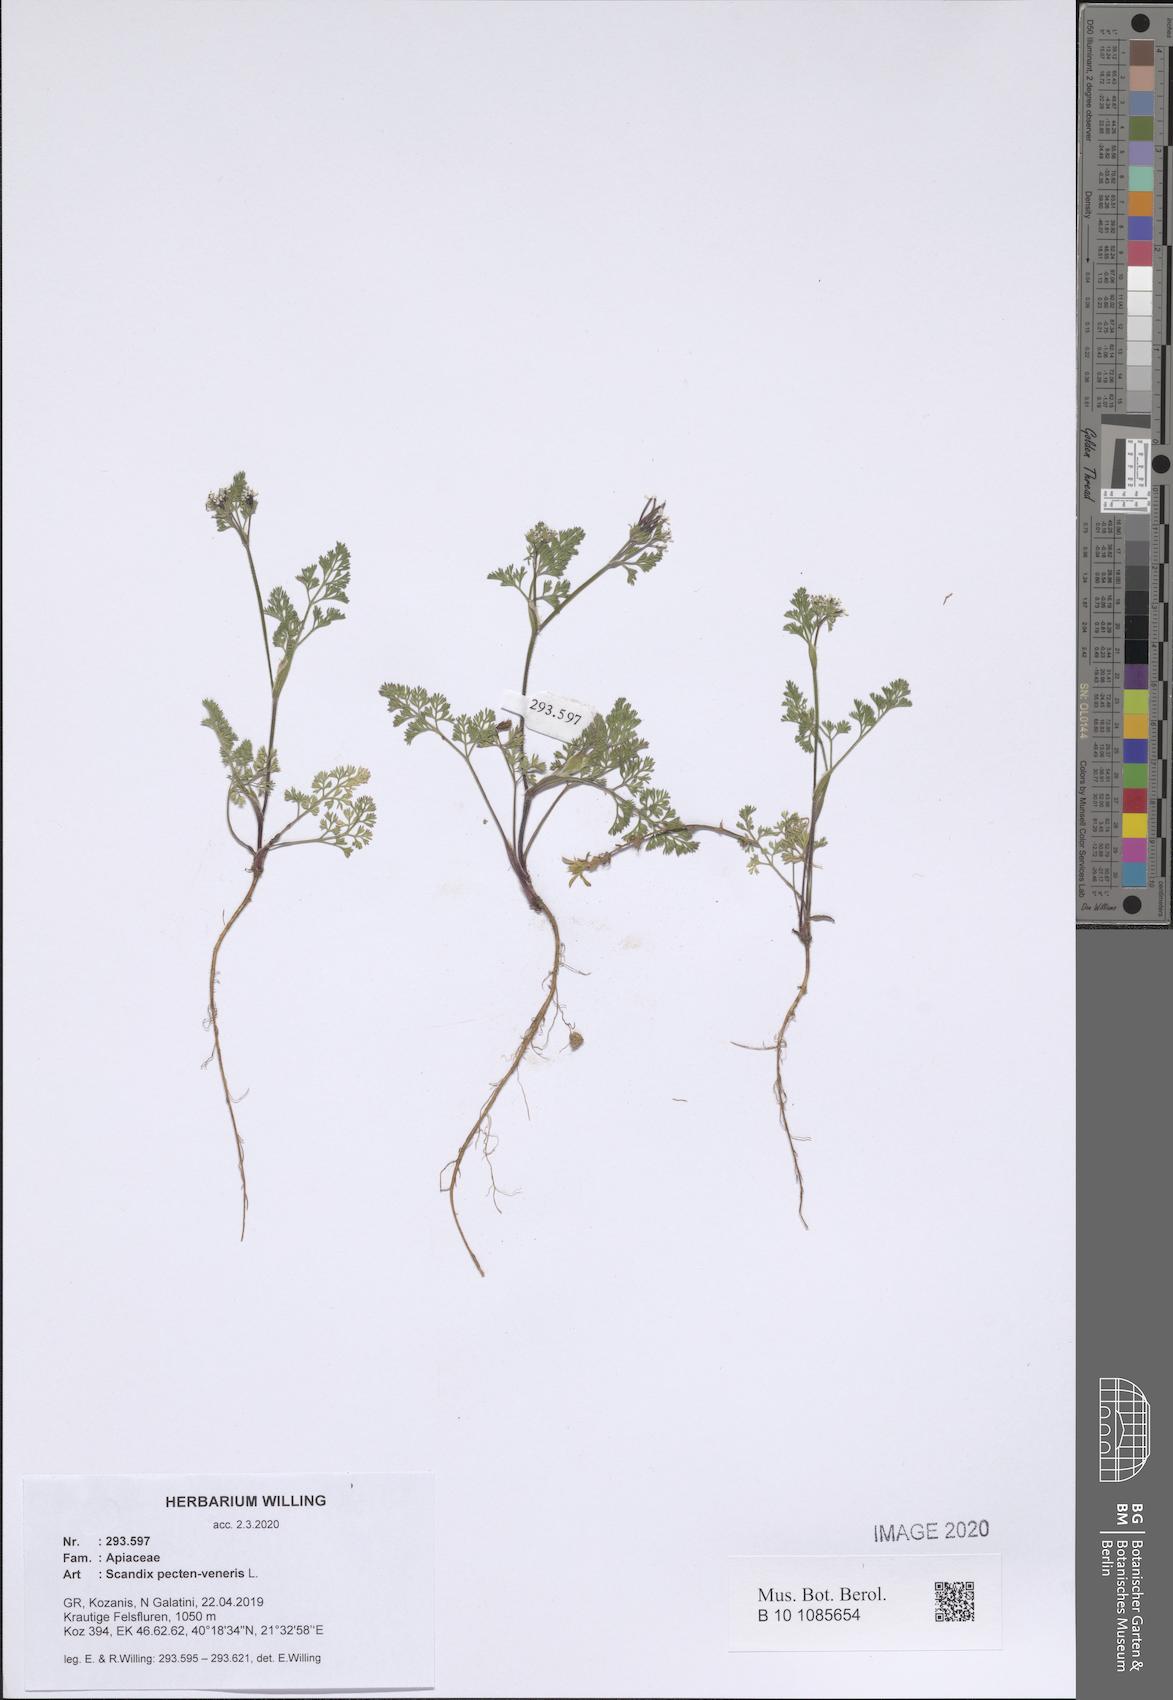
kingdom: Plantae
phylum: Tracheophyta
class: Magnoliopsida
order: Apiales
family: Apiaceae
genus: Scandix
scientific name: Scandix pecten-veneris
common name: Shepherd's-needle
